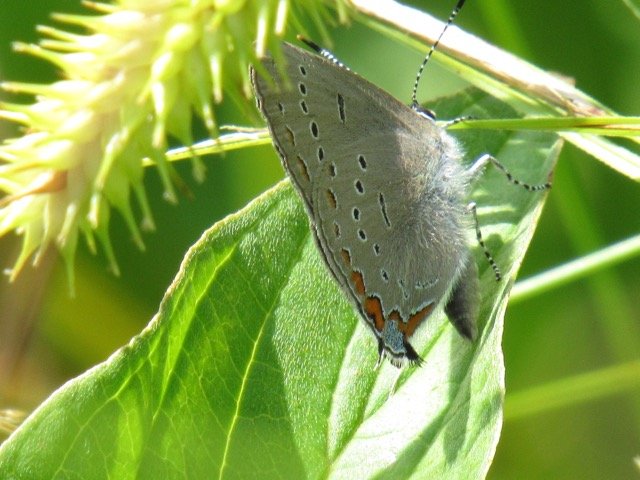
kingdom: Animalia
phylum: Arthropoda
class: Insecta
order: Lepidoptera
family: Lycaenidae
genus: Strymon
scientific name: Strymon acadica
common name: Acadian Hairstreak
